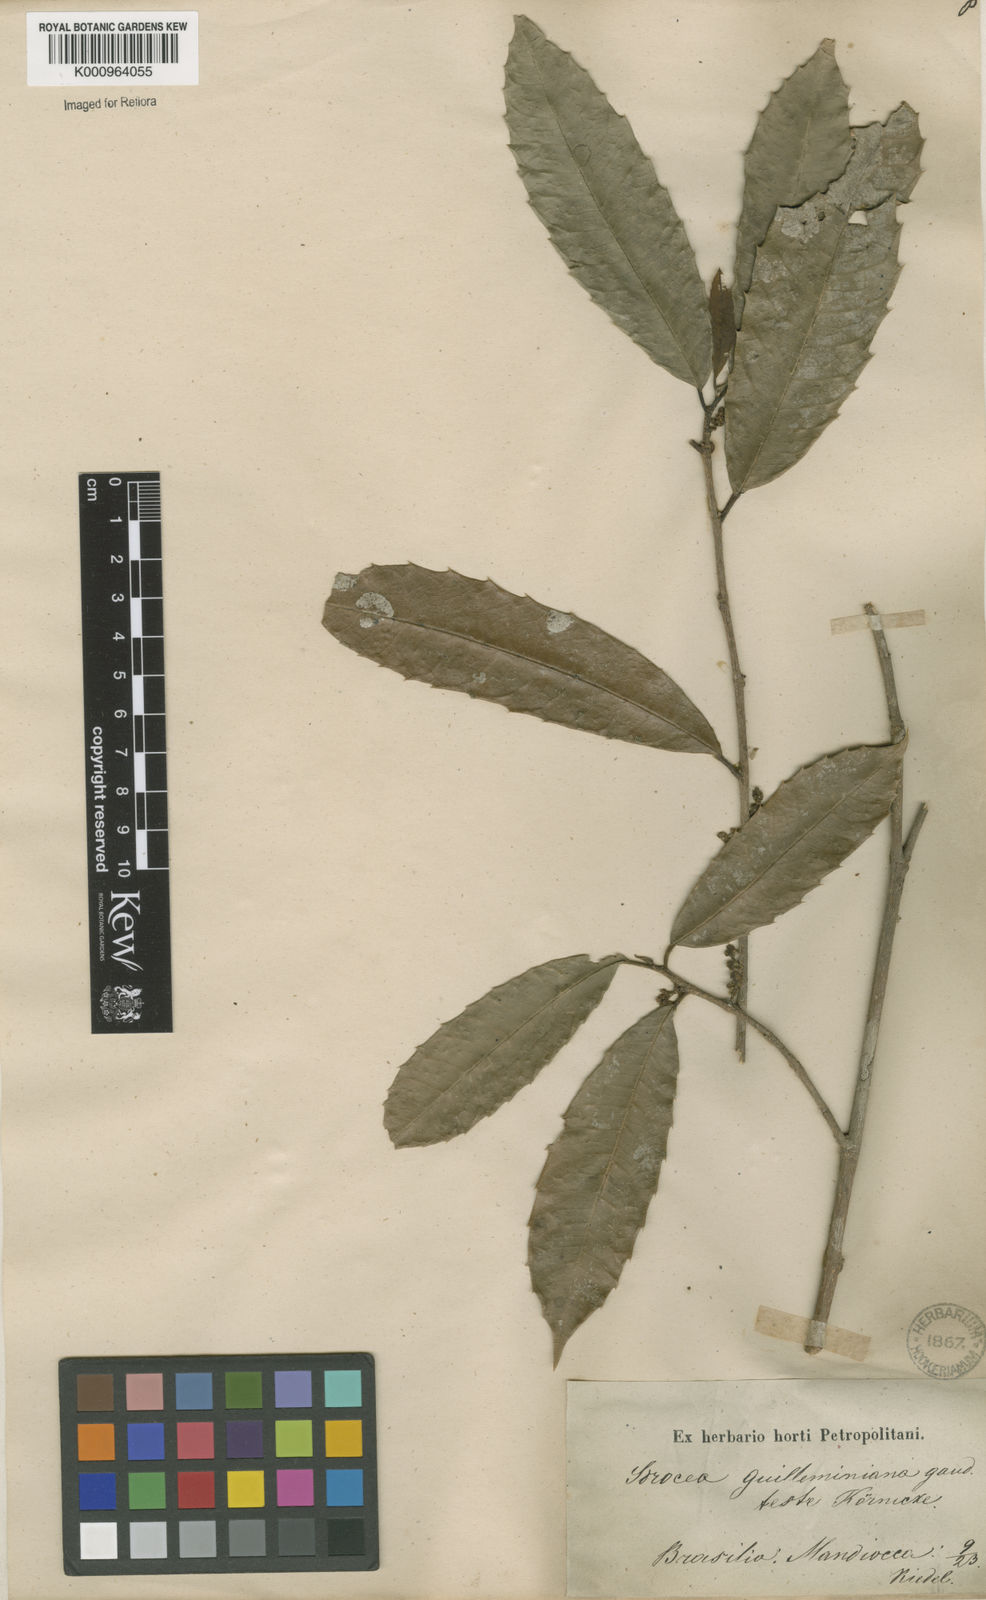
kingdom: Plantae
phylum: Tracheophyta
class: Magnoliopsida
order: Rosales
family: Moraceae
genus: Sorocea
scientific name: Sorocea guilleminiana
